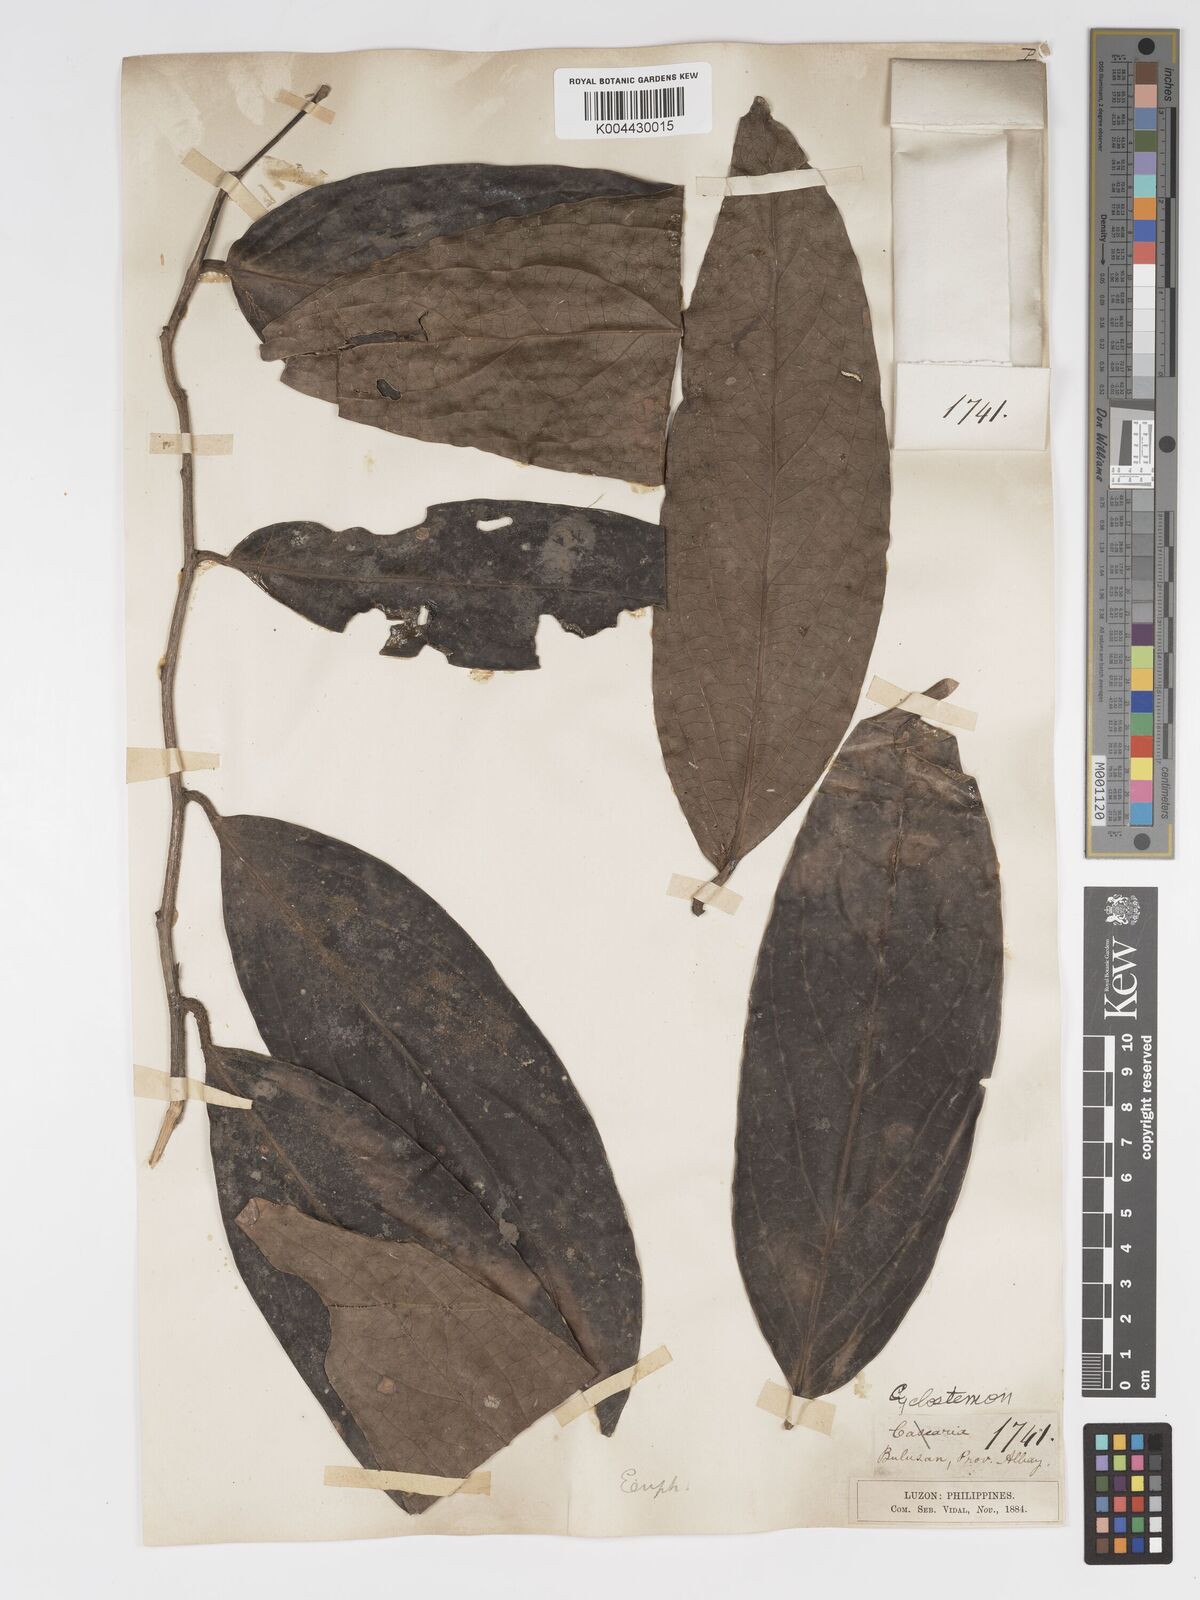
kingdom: Plantae
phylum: Tracheophyta
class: Magnoliopsida
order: Malpighiales
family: Putranjivaceae
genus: Drypetes
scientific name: Drypetes grandifolia
